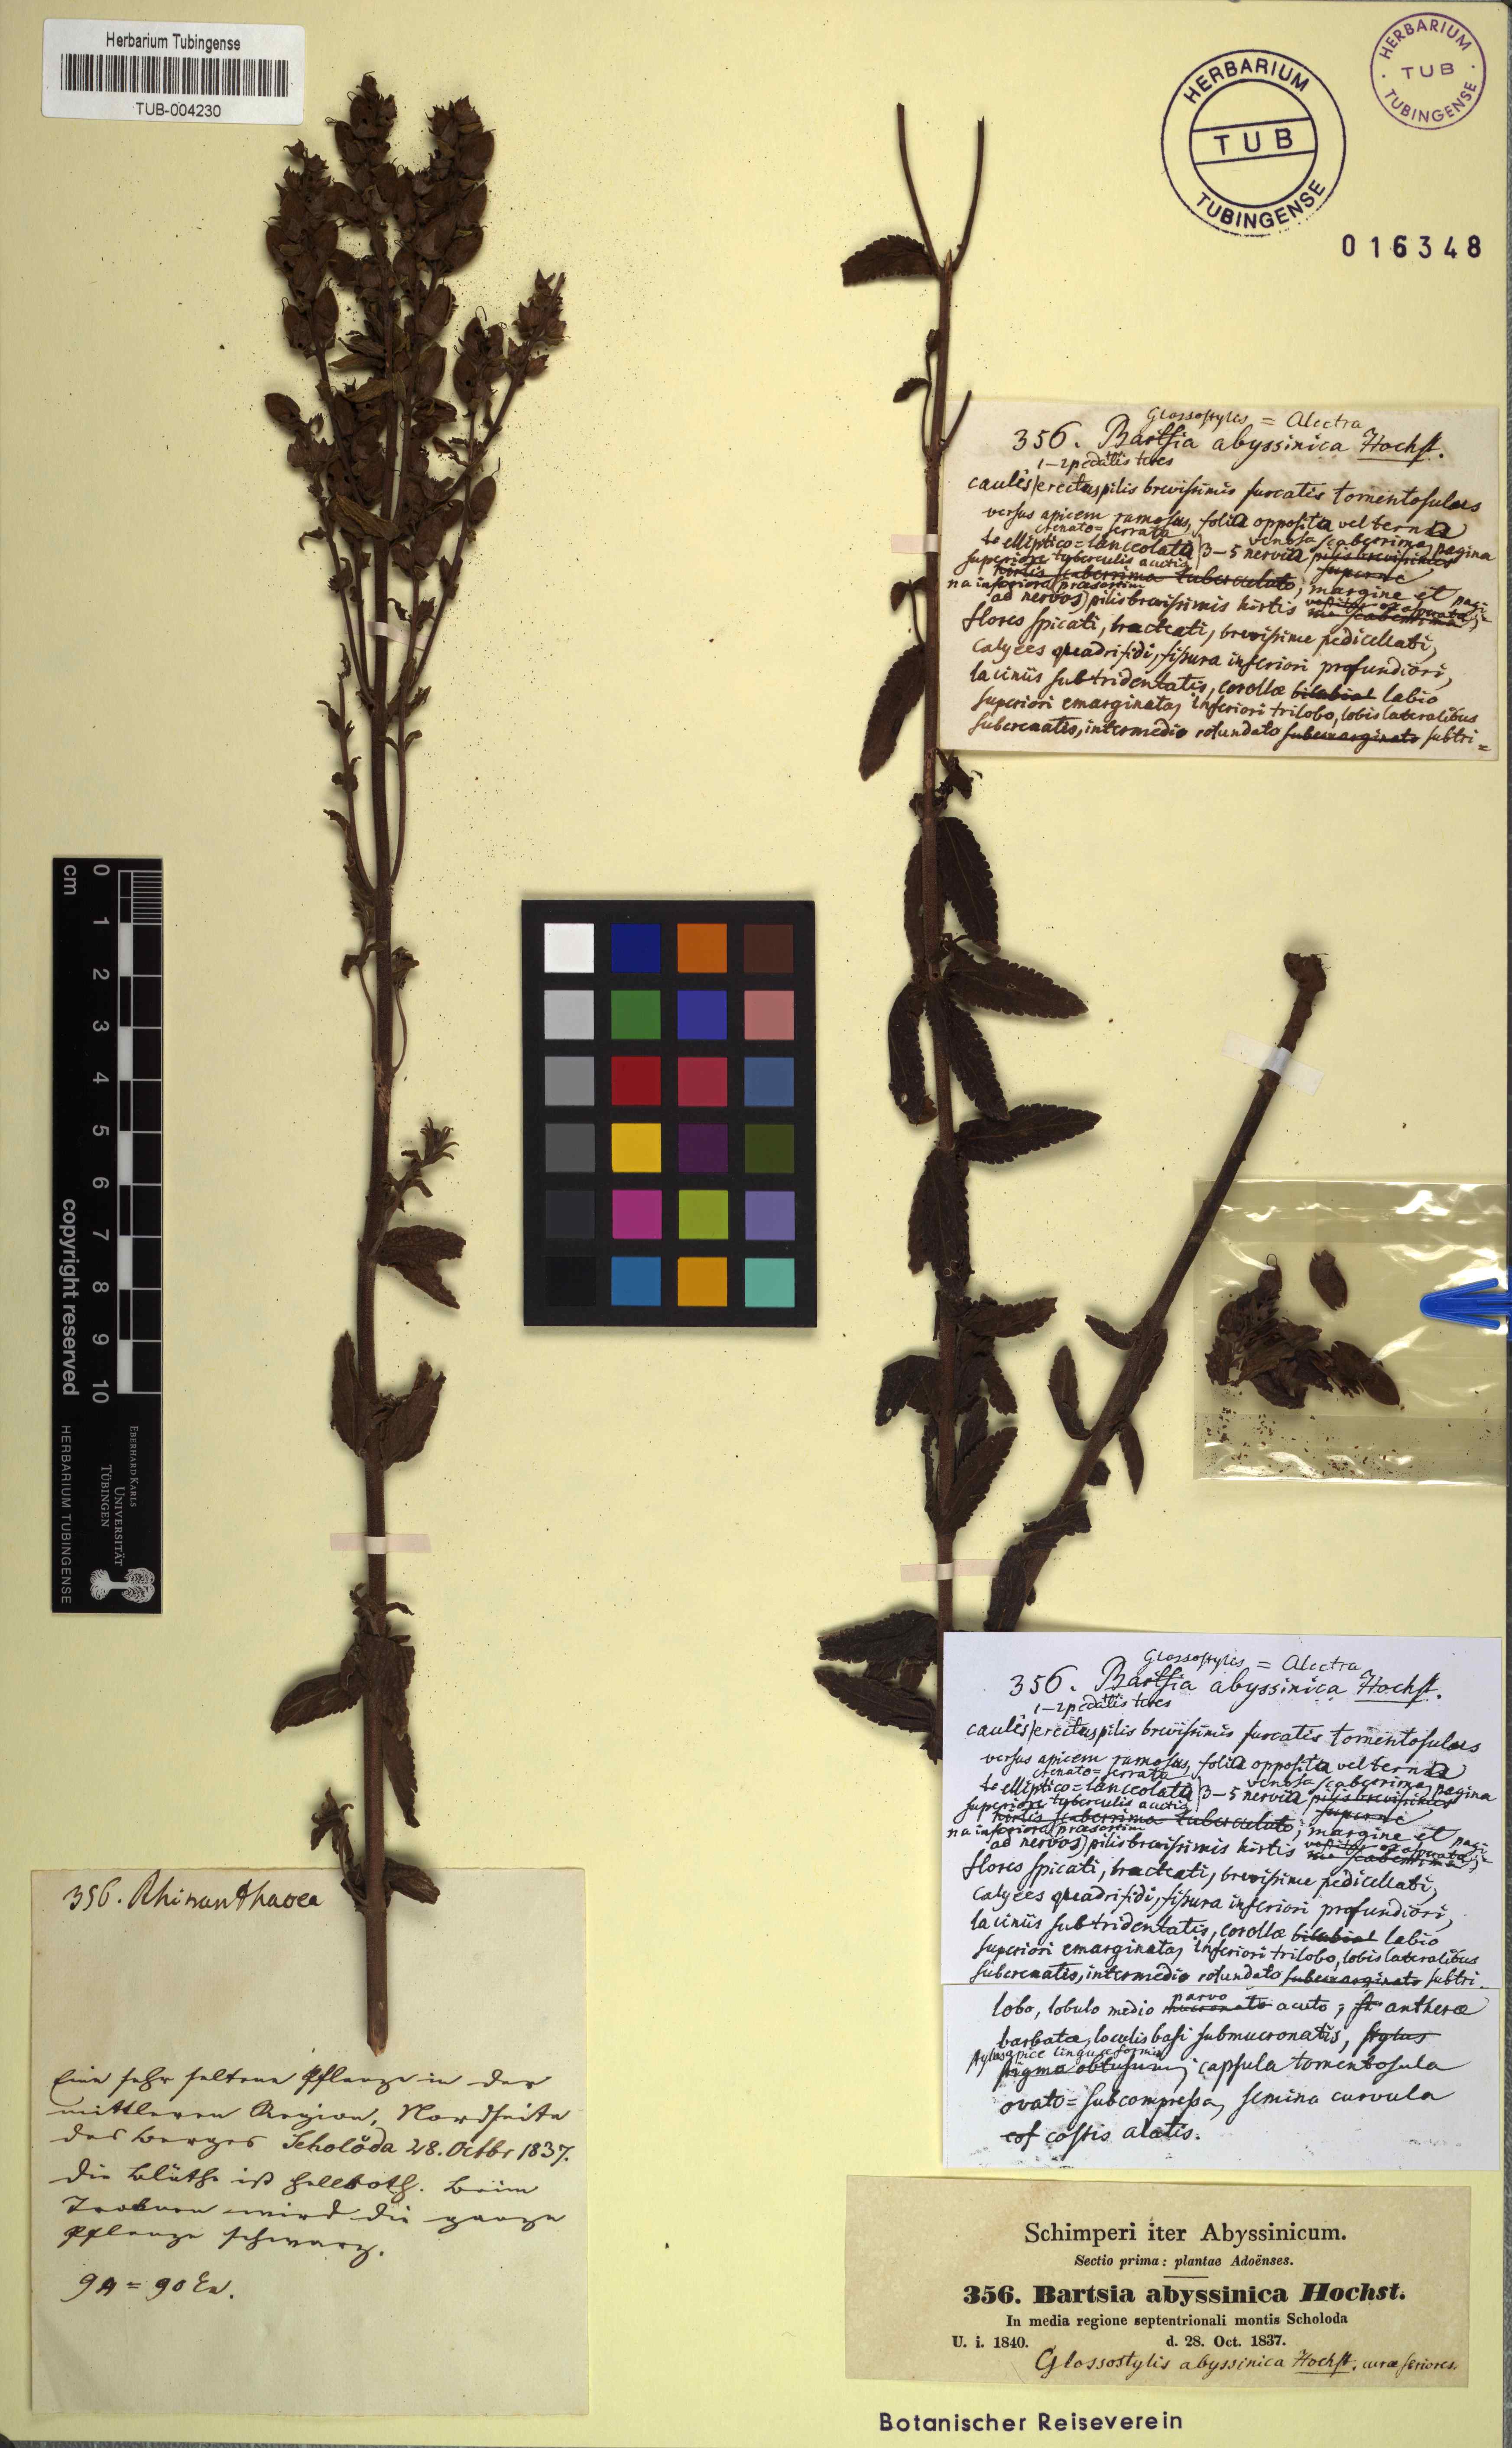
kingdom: Plantae
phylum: Tracheophyta
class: Magnoliopsida
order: Lamiales
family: Orobanchaceae
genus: Hedbergia
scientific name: Hedbergia abyssinica
